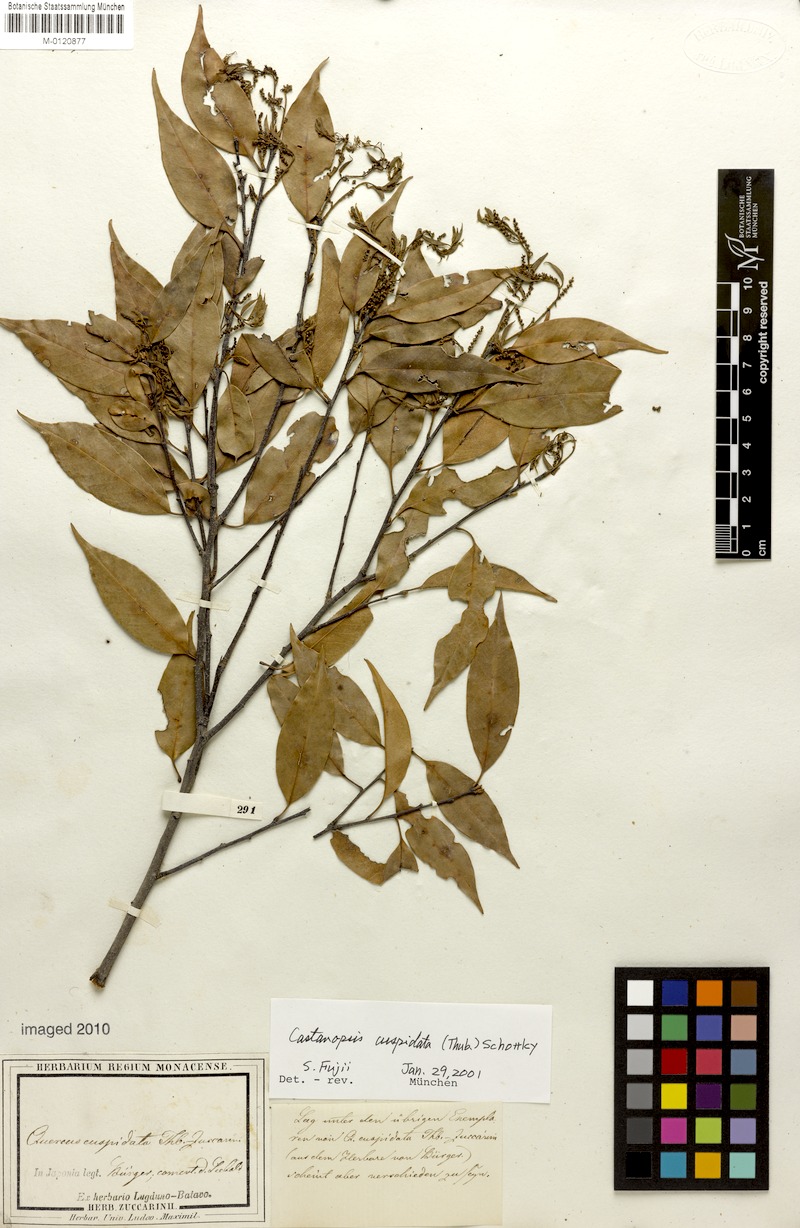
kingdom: Plantae
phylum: Tracheophyta
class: Magnoliopsida
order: Fagales
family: Fagaceae
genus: Castanopsis
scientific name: Castanopsis cuspidata
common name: Japanese chinquapin
